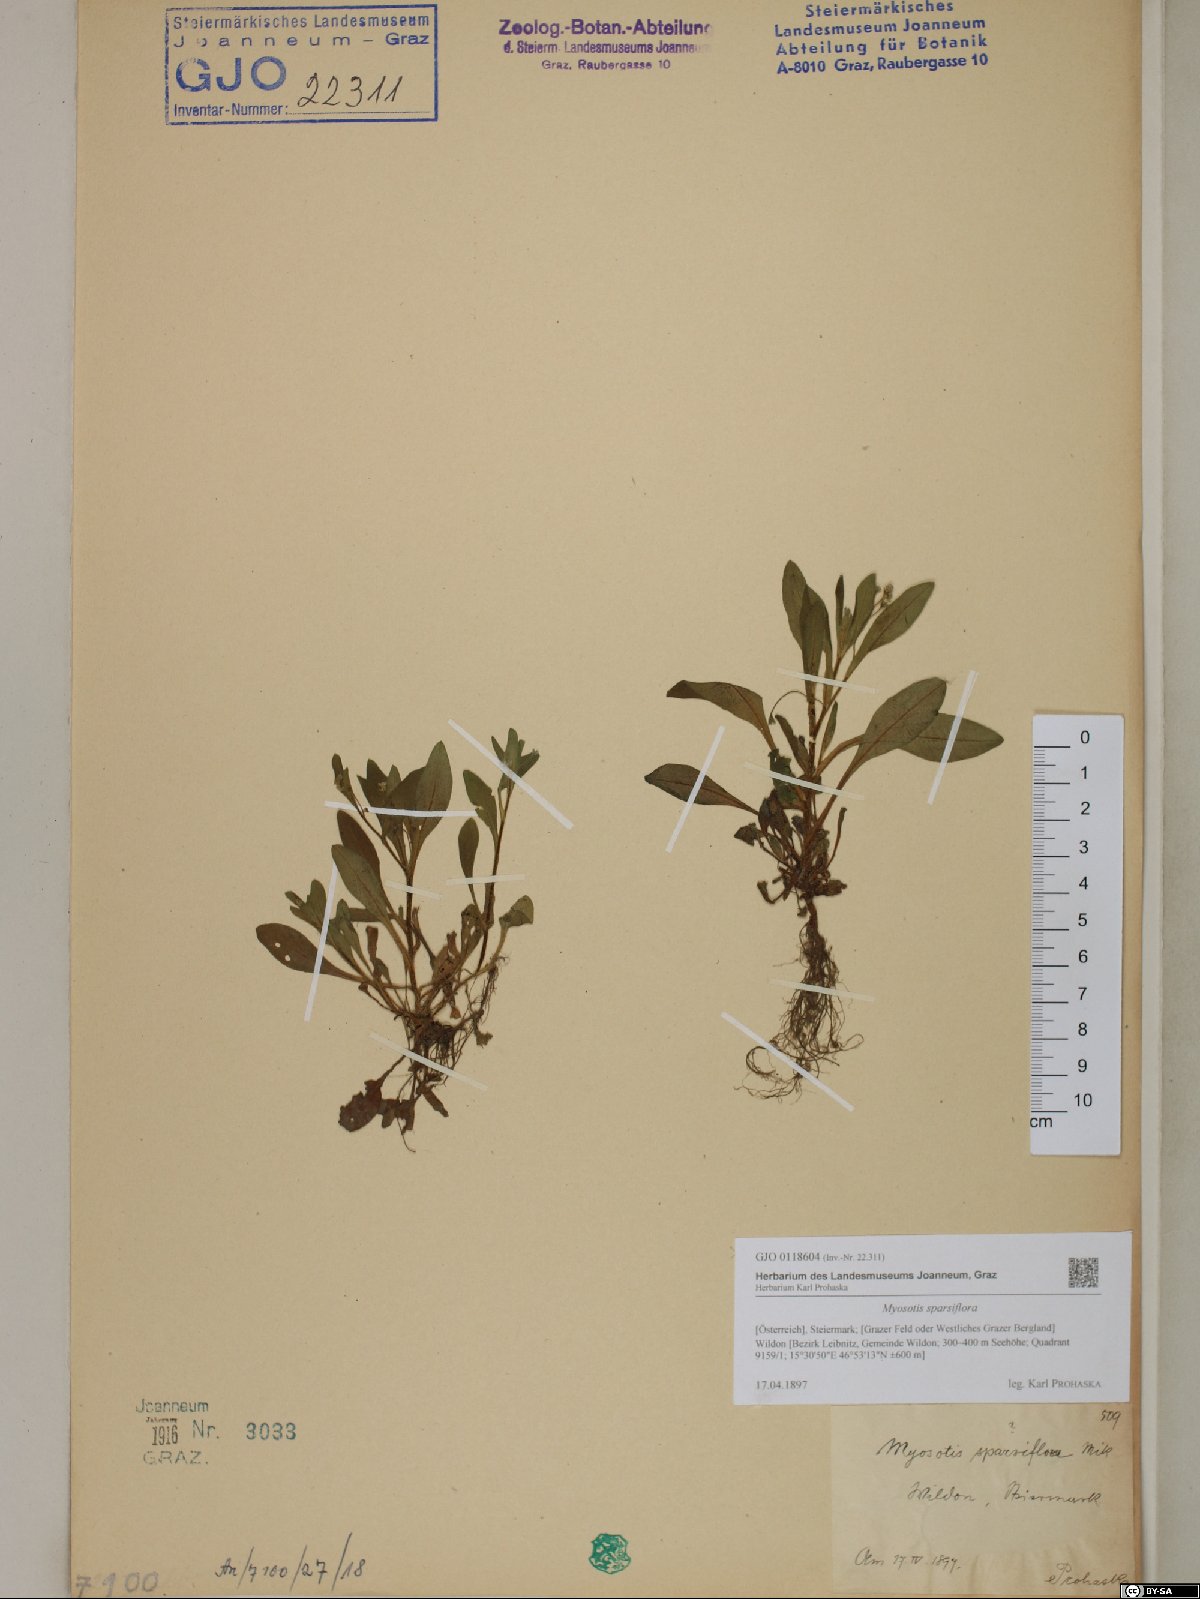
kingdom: Plantae
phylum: Tracheophyta
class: Magnoliopsida
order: Boraginales
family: Boraginaceae
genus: Myosotis
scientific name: Myosotis sparsiflora
